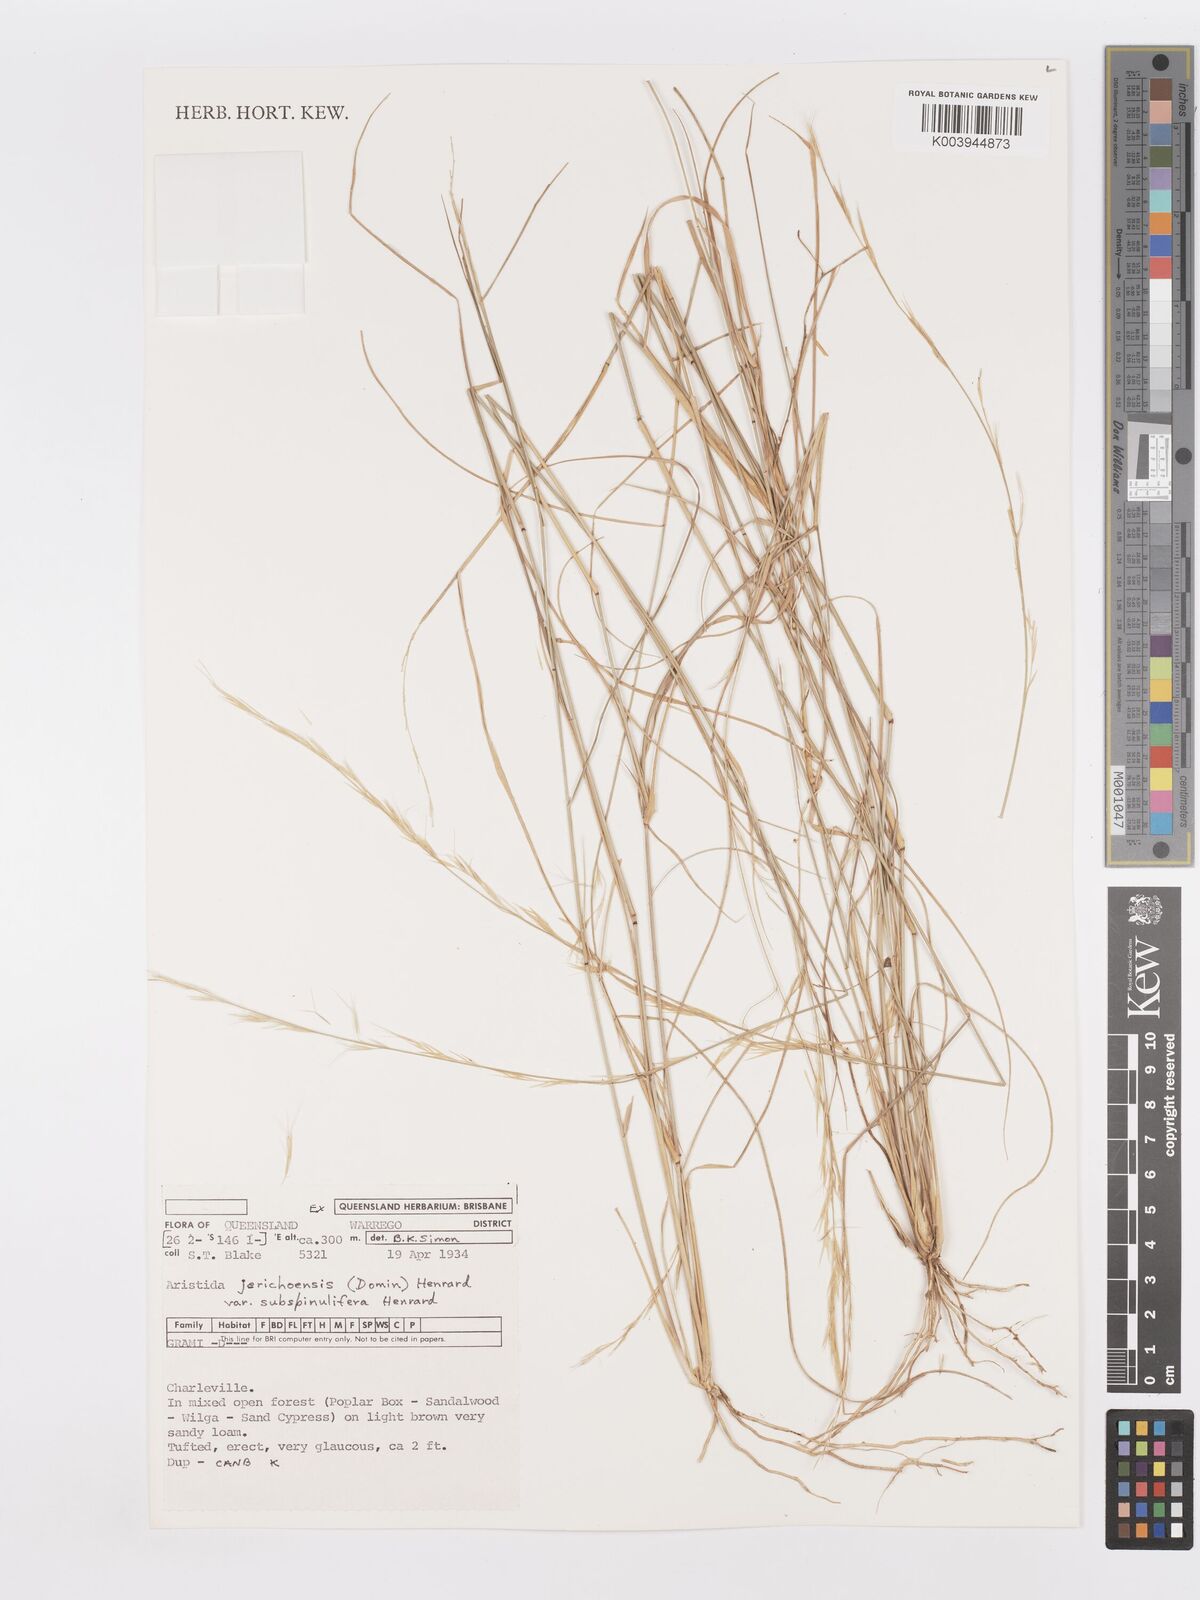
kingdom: Plantae
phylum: Tracheophyta
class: Liliopsida
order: Poales
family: Poaceae
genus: Aristida
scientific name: Aristida jerichoensis
